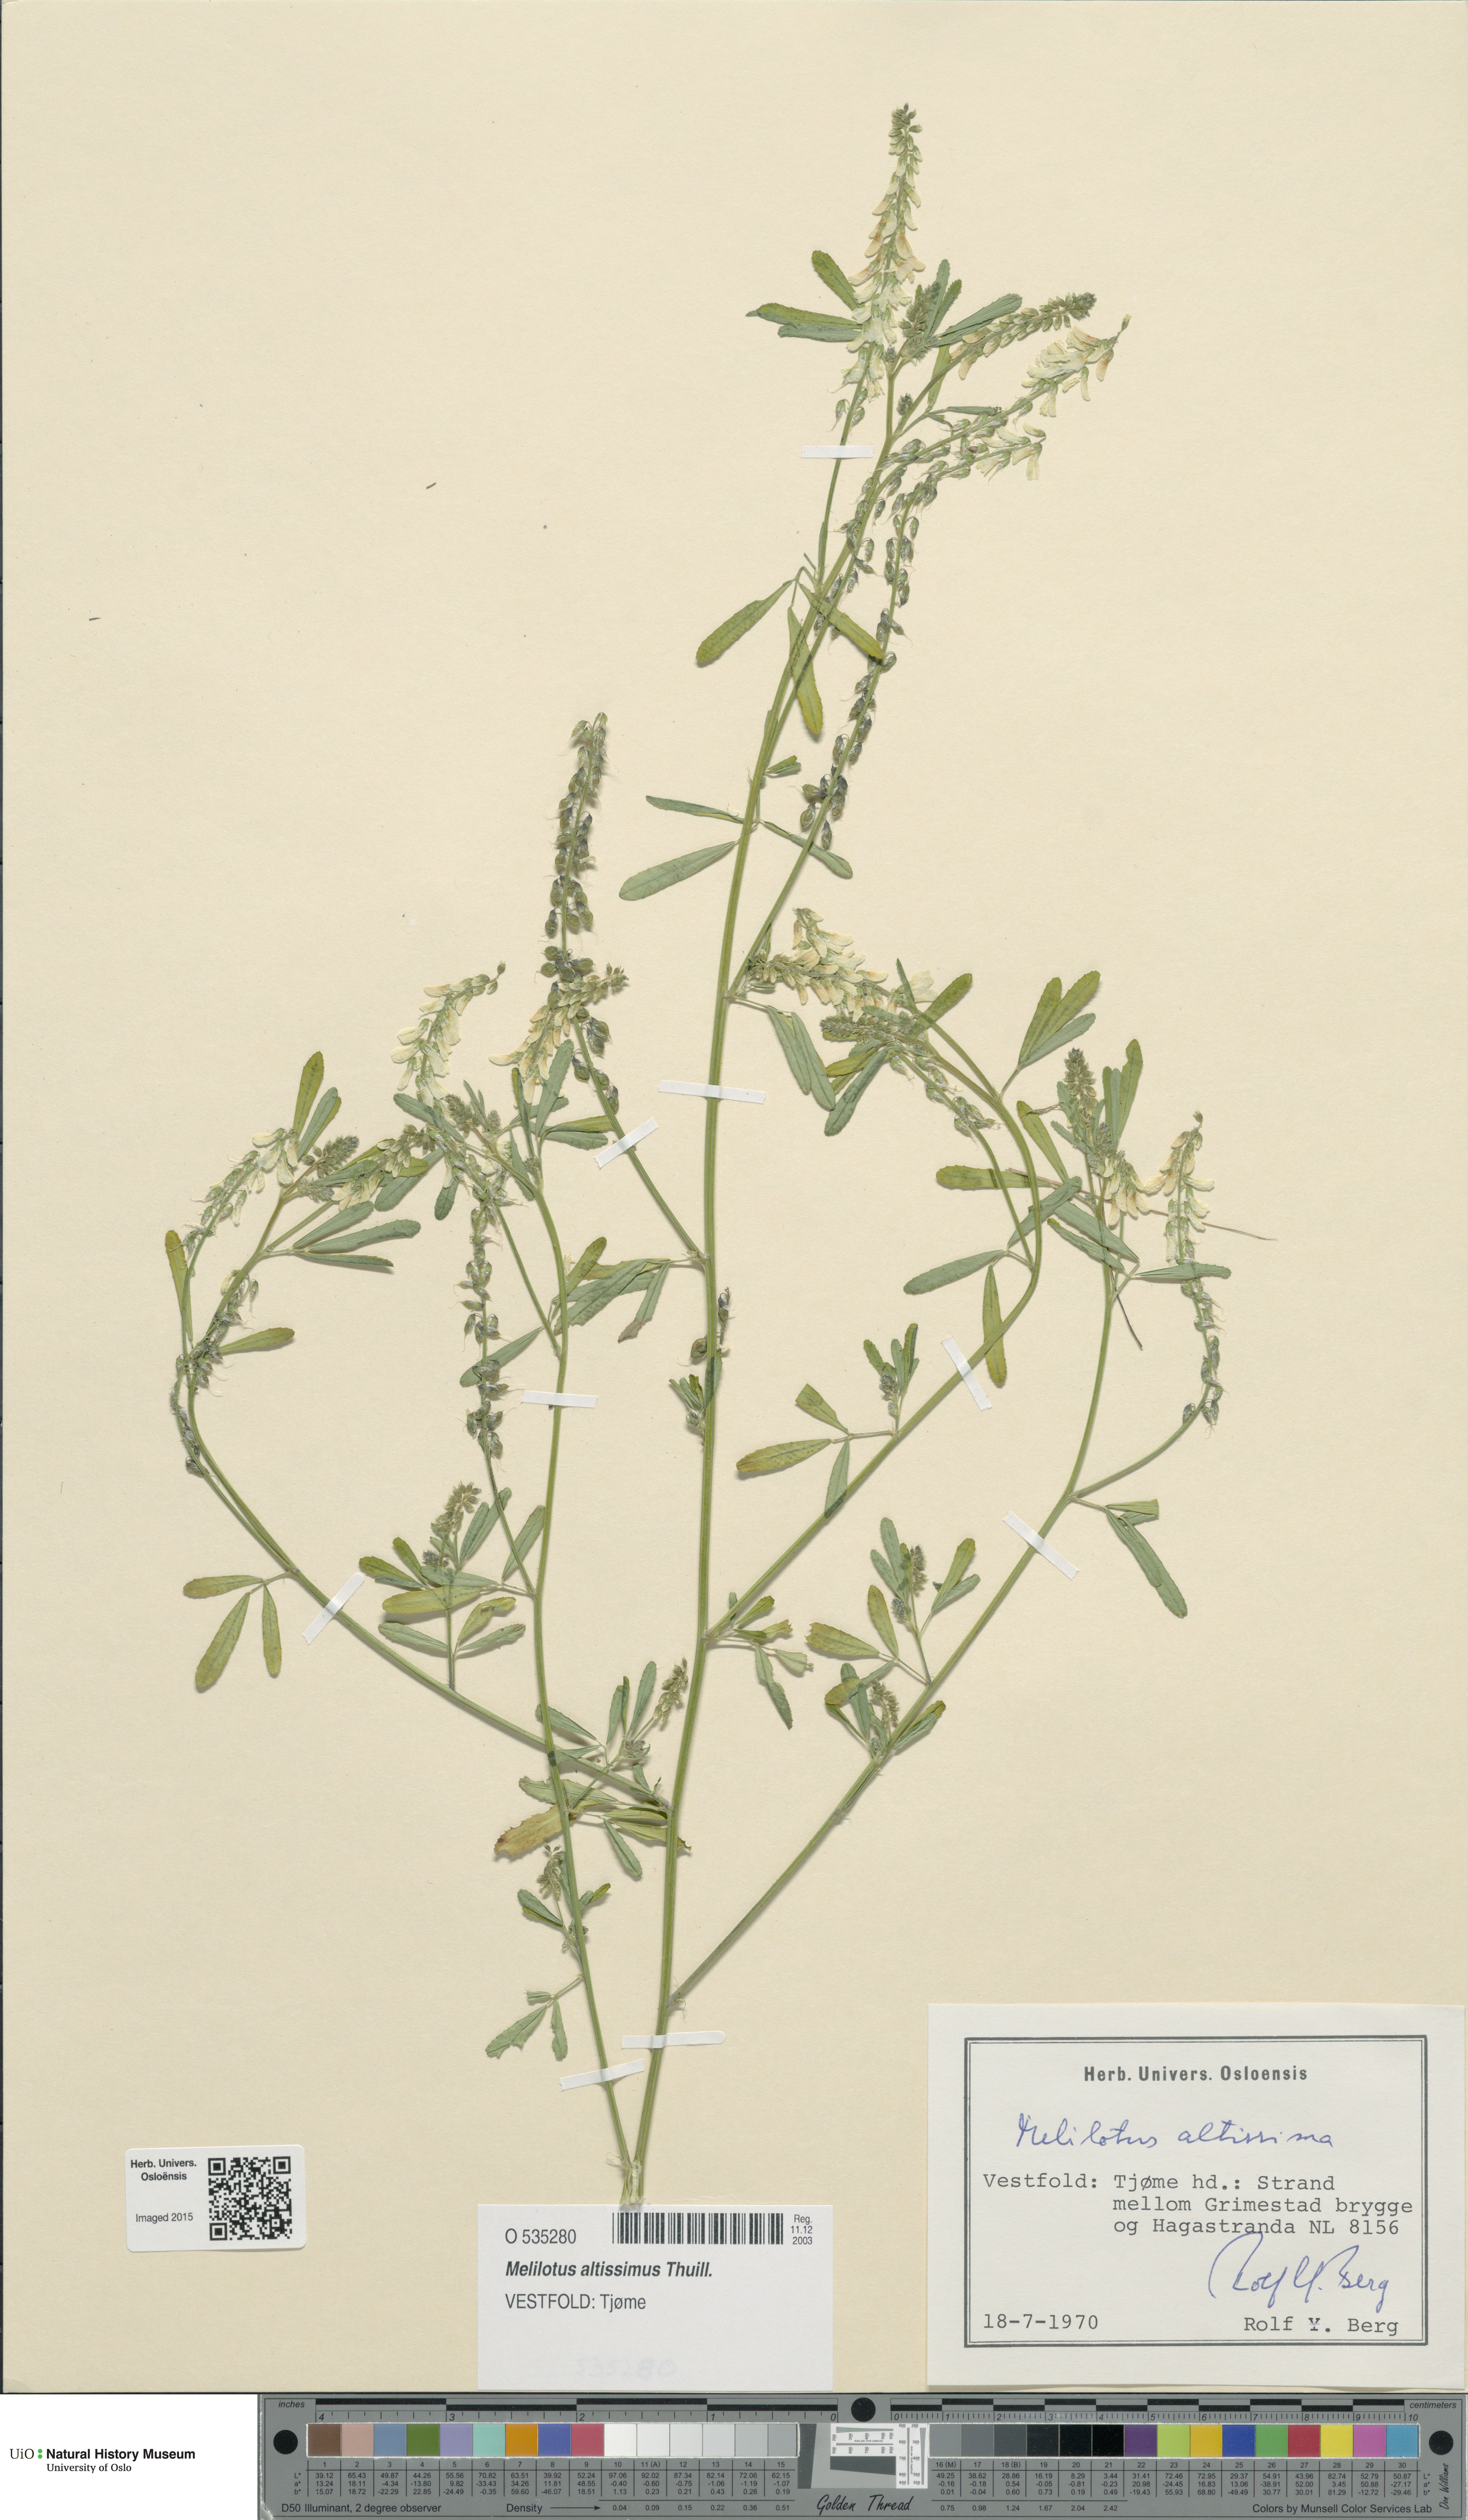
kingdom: Plantae
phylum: Tracheophyta
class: Magnoliopsida
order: Fabales
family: Fabaceae
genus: Melilotus
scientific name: Melilotus altissimus
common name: Tall melilot
